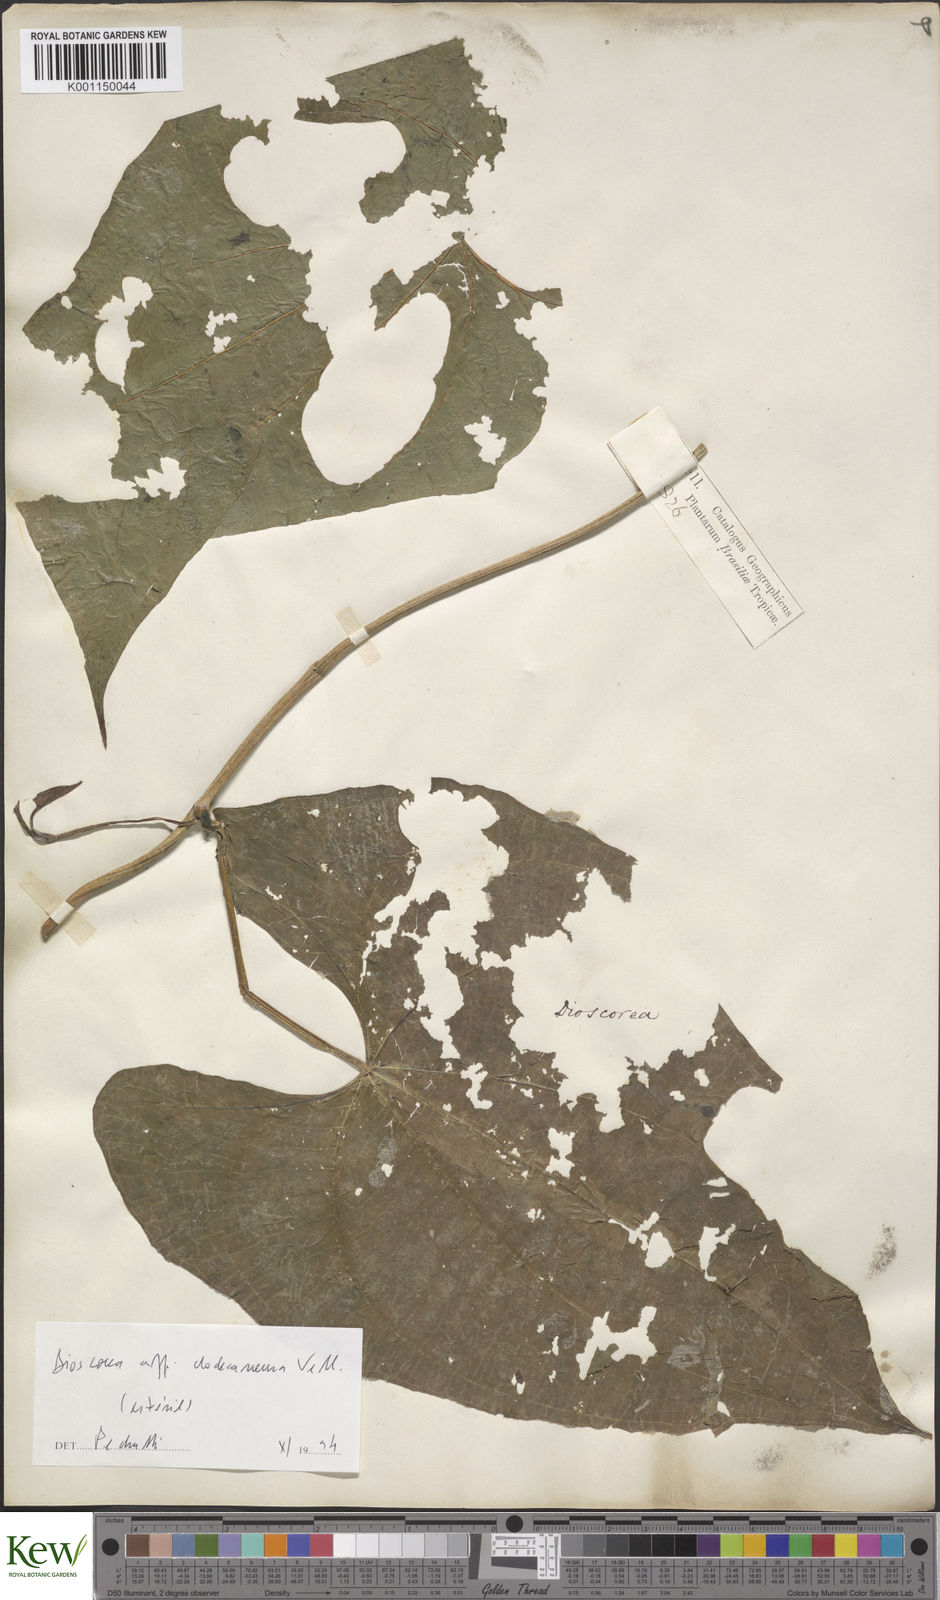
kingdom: Plantae
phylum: Tracheophyta
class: Liliopsida
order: Dioscoreales
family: Dioscoreaceae
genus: Dioscorea
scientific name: Dioscorea dodecaneura
